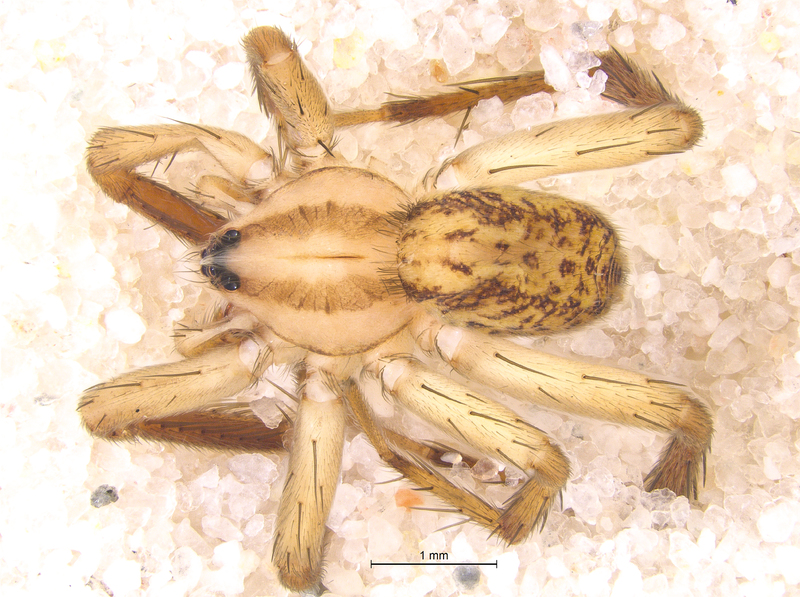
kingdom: Animalia
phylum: Arthropoda
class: Arachnida
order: Araneae
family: Miturgidae
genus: Zora
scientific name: Zora spinimana
